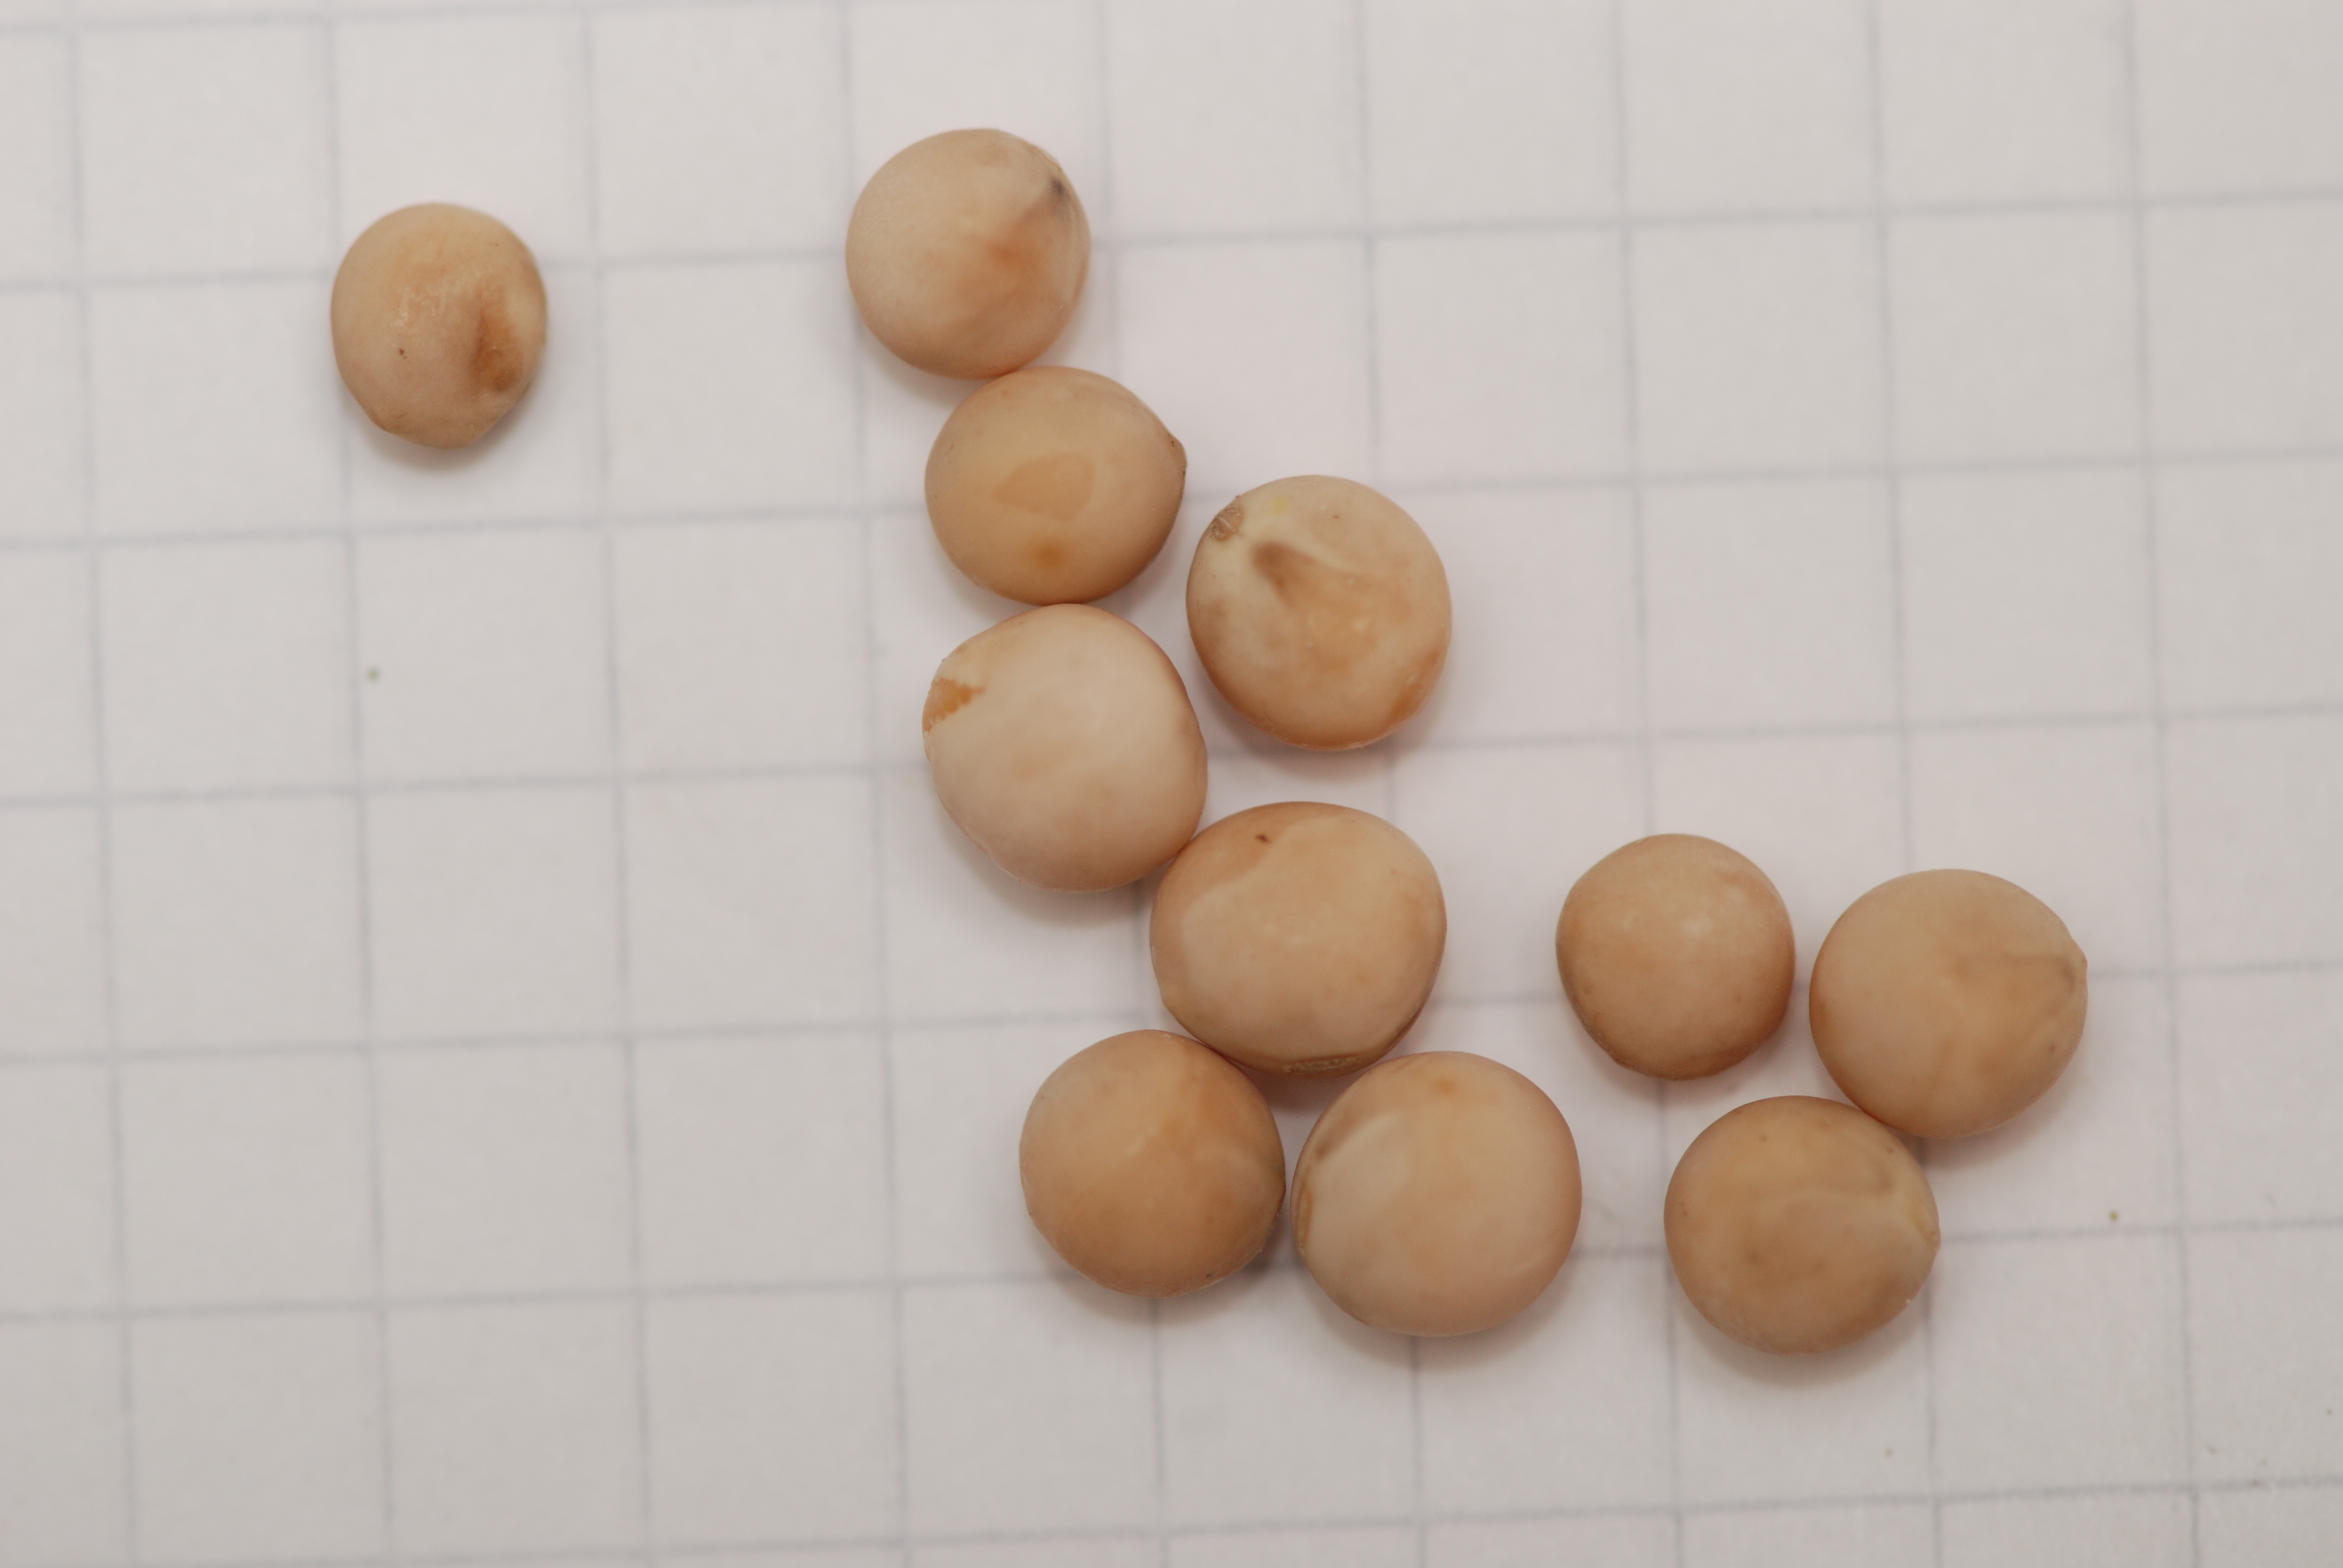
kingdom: Plantae
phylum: Tracheophyta
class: Magnoliopsida
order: Fabales
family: Fabaceae
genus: Lathyrus
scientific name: Lathyrus oleraceus
